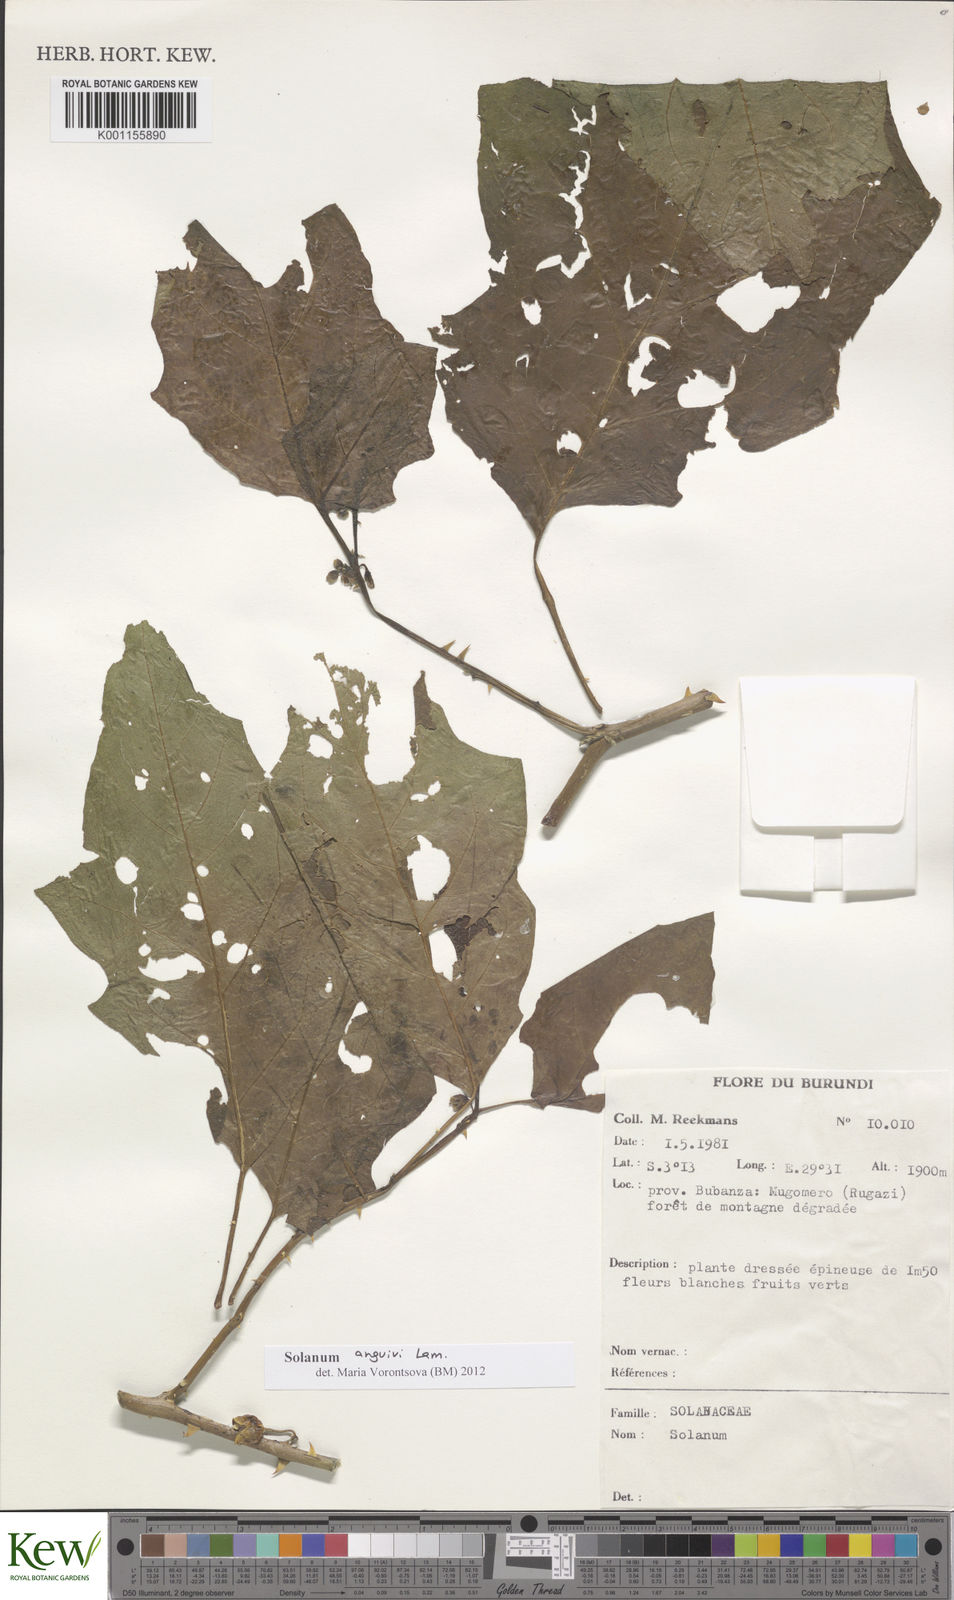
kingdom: Plantae
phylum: Tracheophyta
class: Magnoliopsida
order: Solanales
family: Solanaceae
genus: Solanum
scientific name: Solanum anguivi
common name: Forest bitterberry
